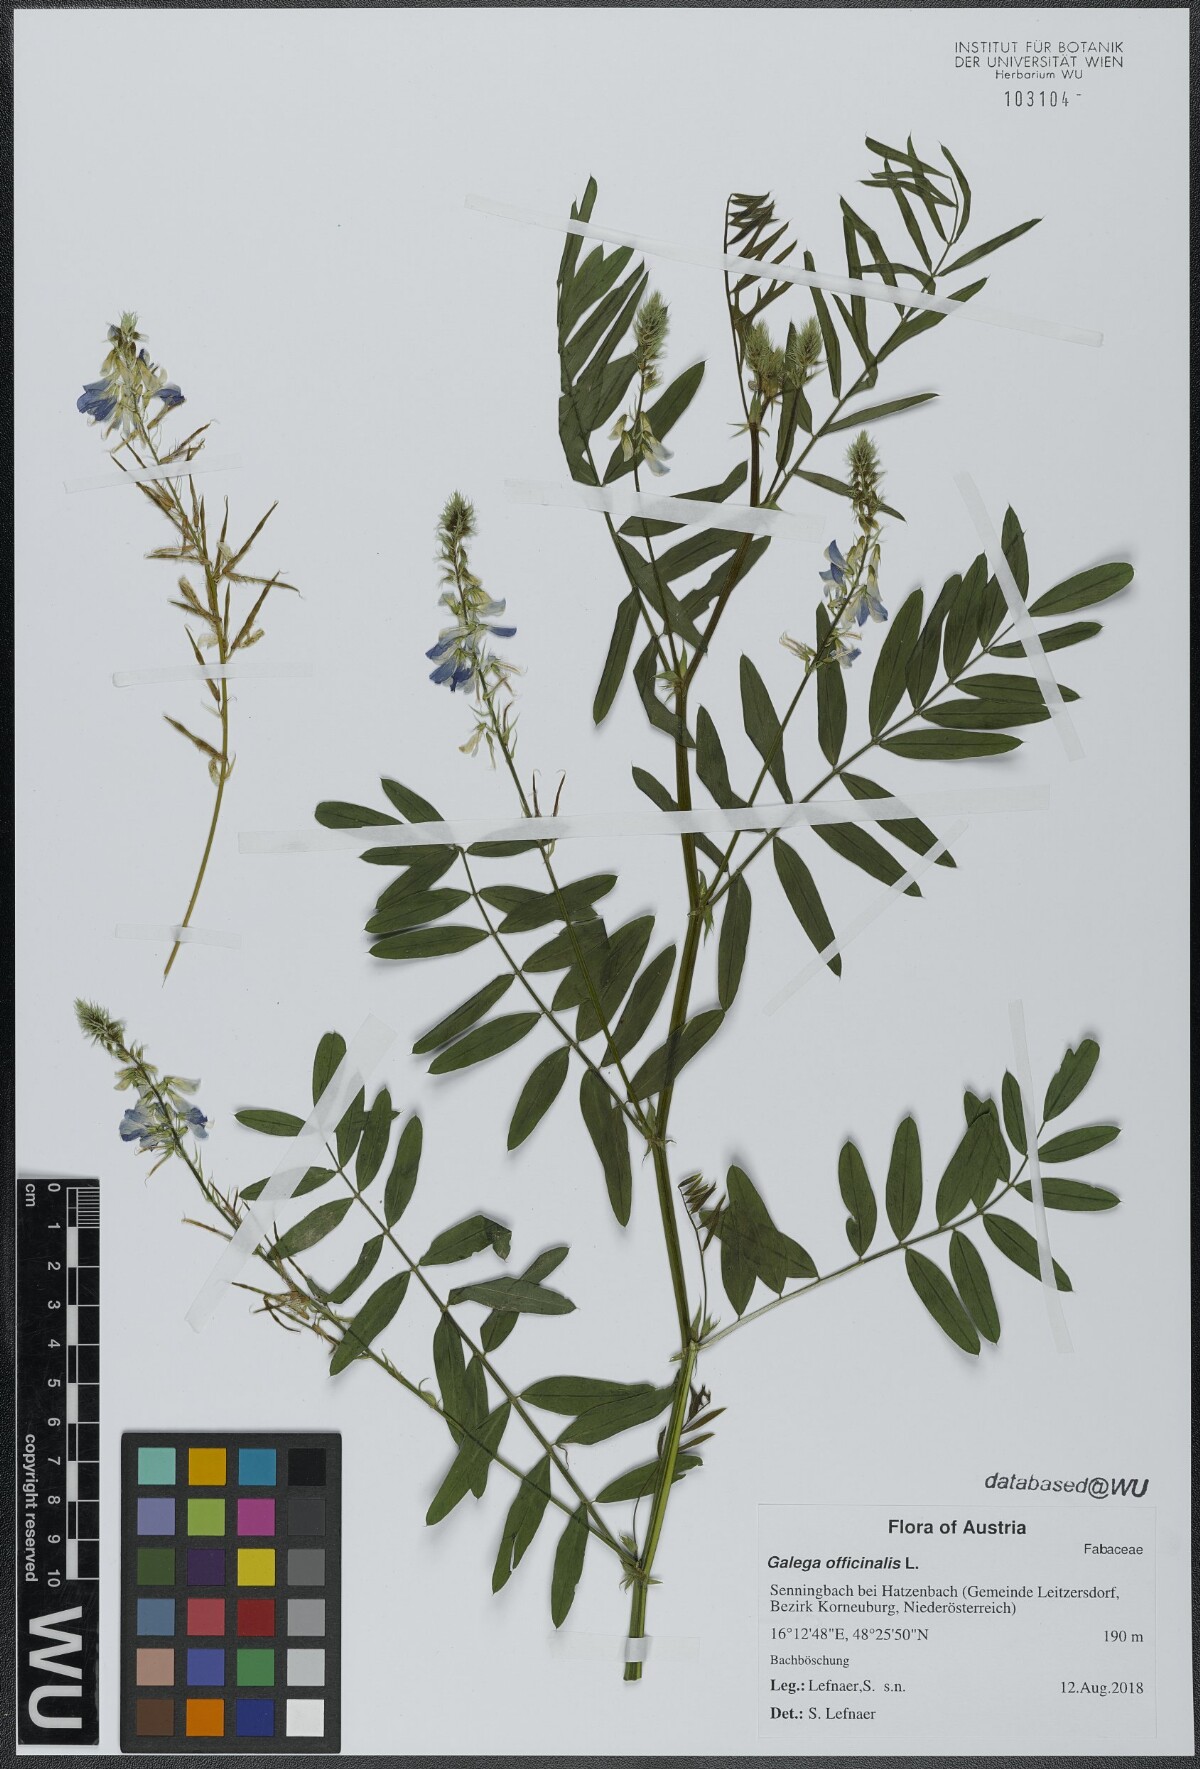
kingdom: Plantae
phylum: Tracheophyta
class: Magnoliopsida
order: Fabales
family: Fabaceae
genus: Galega
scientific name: Galega officinalis
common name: Goat's-rue
